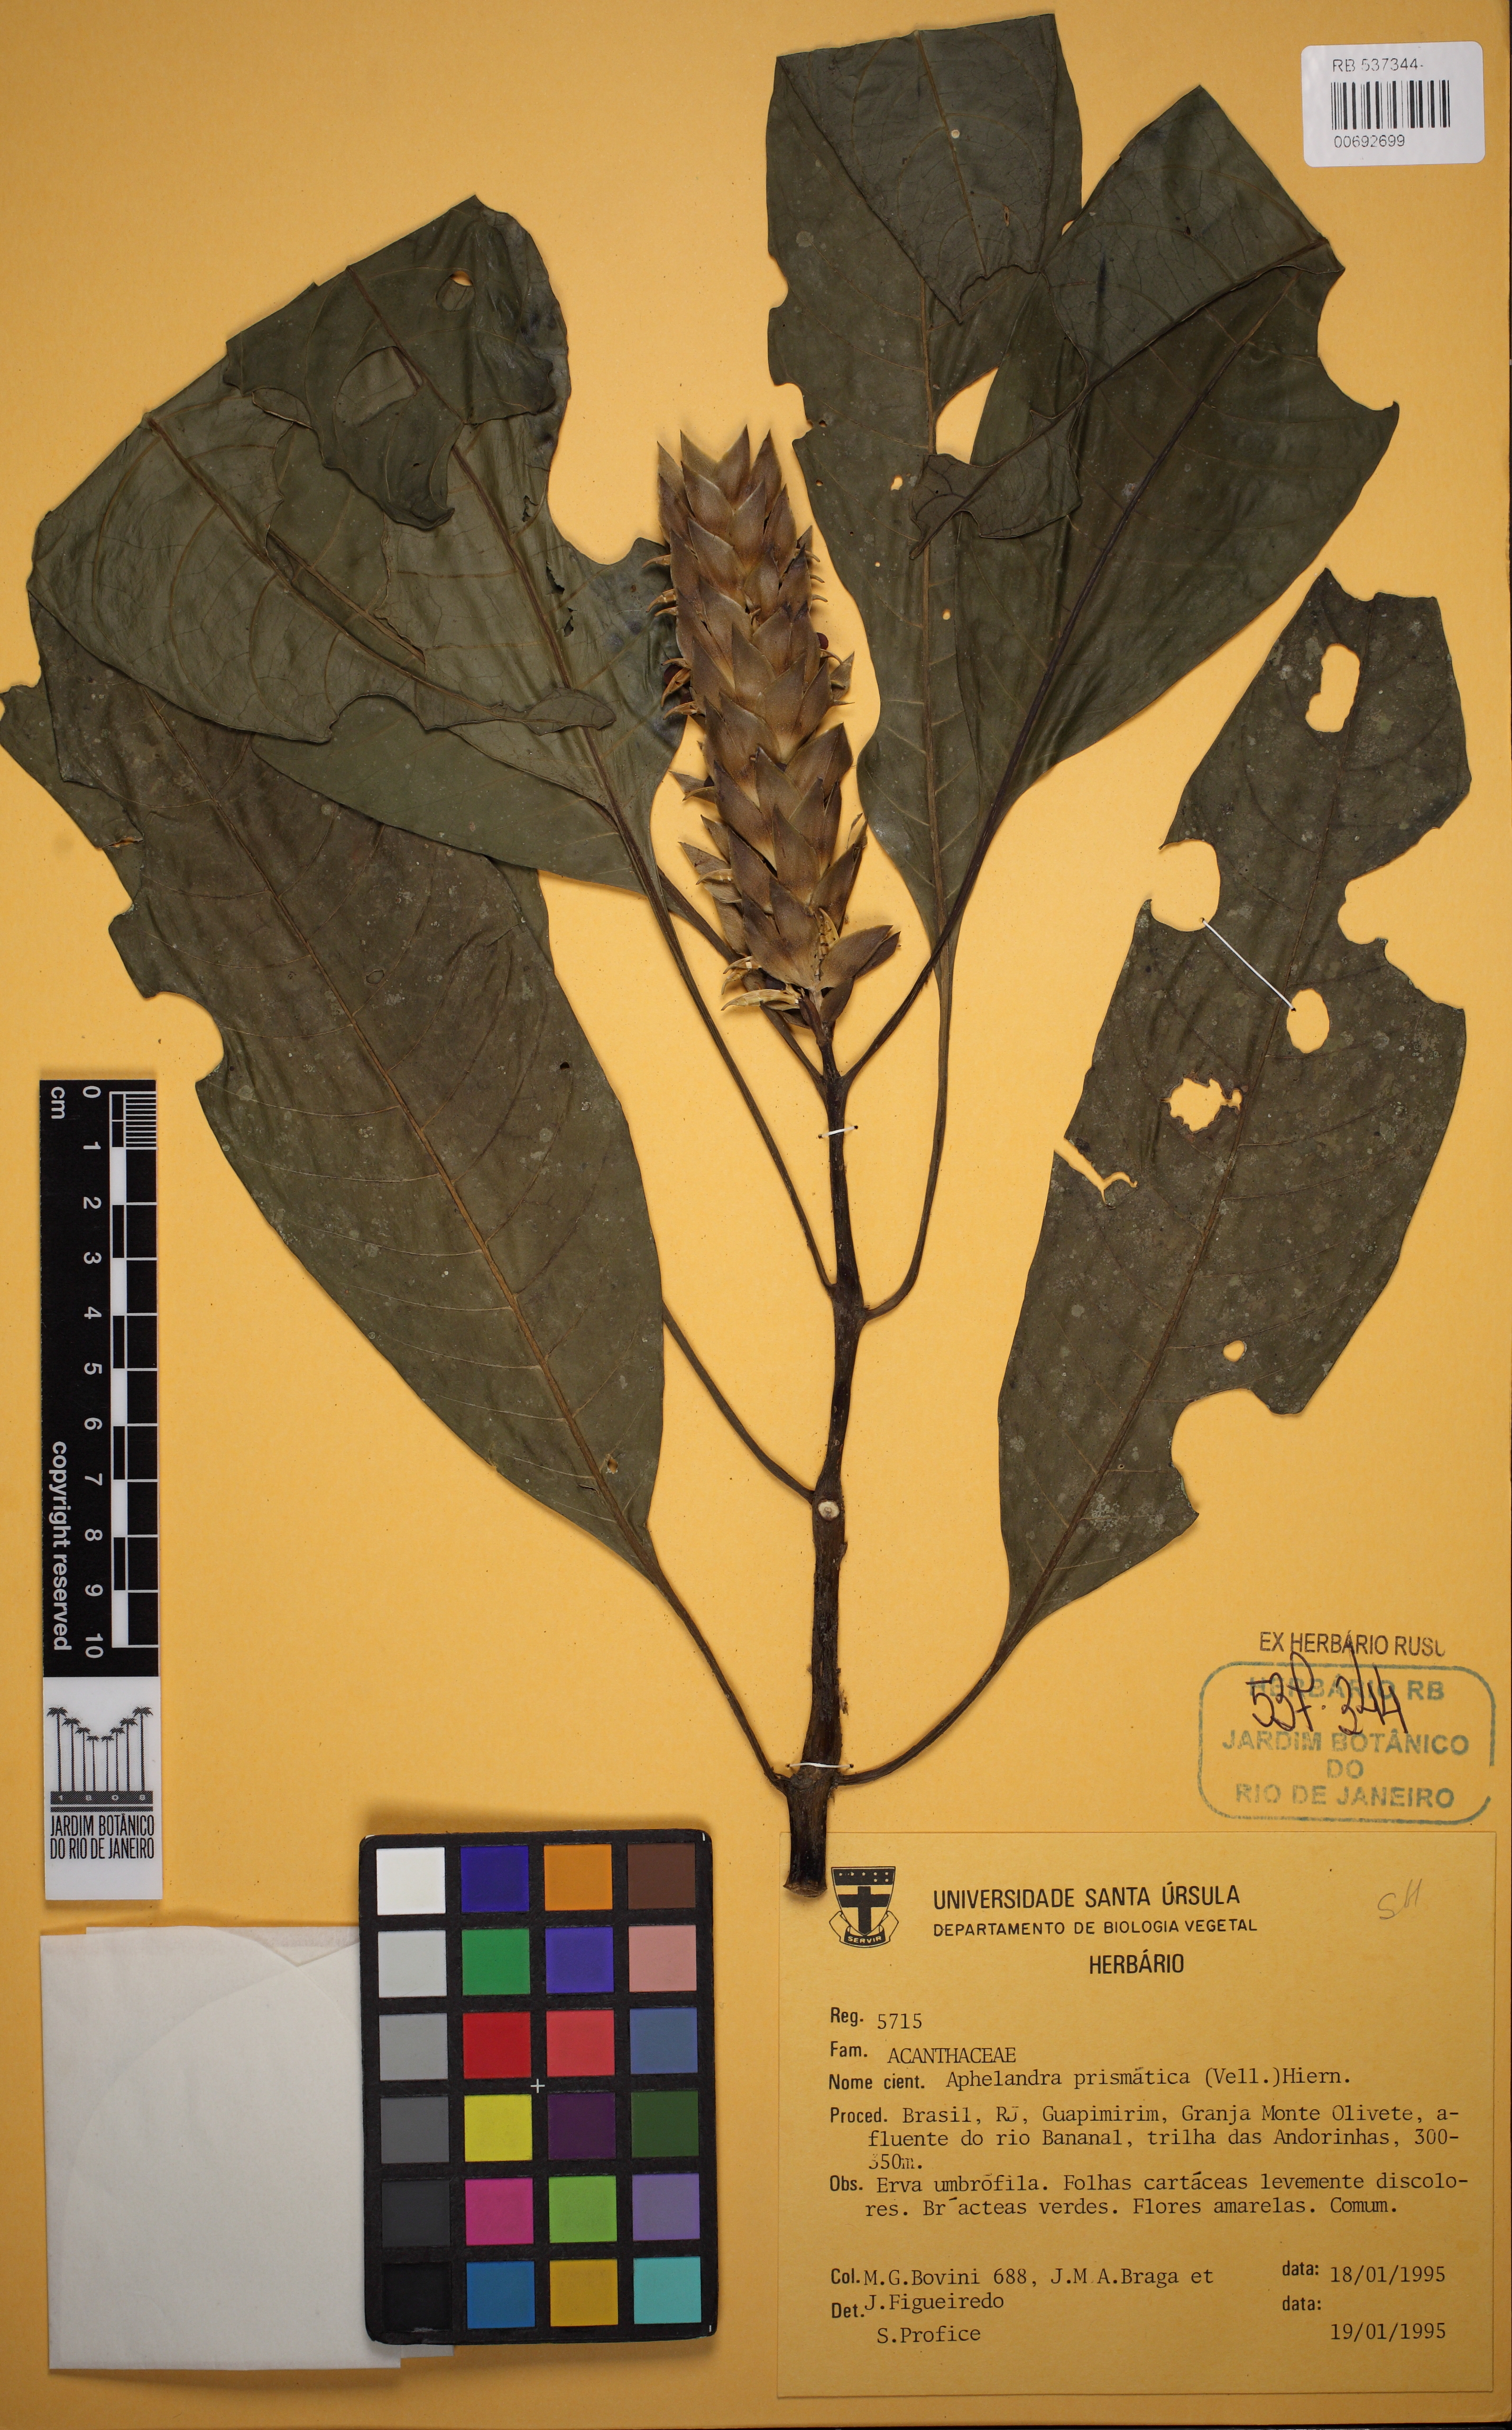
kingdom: Plantae
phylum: Tracheophyta
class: Magnoliopsida
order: Lamiales
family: Acanthaceae
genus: Aphelandra
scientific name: Aphelandra prismatica
